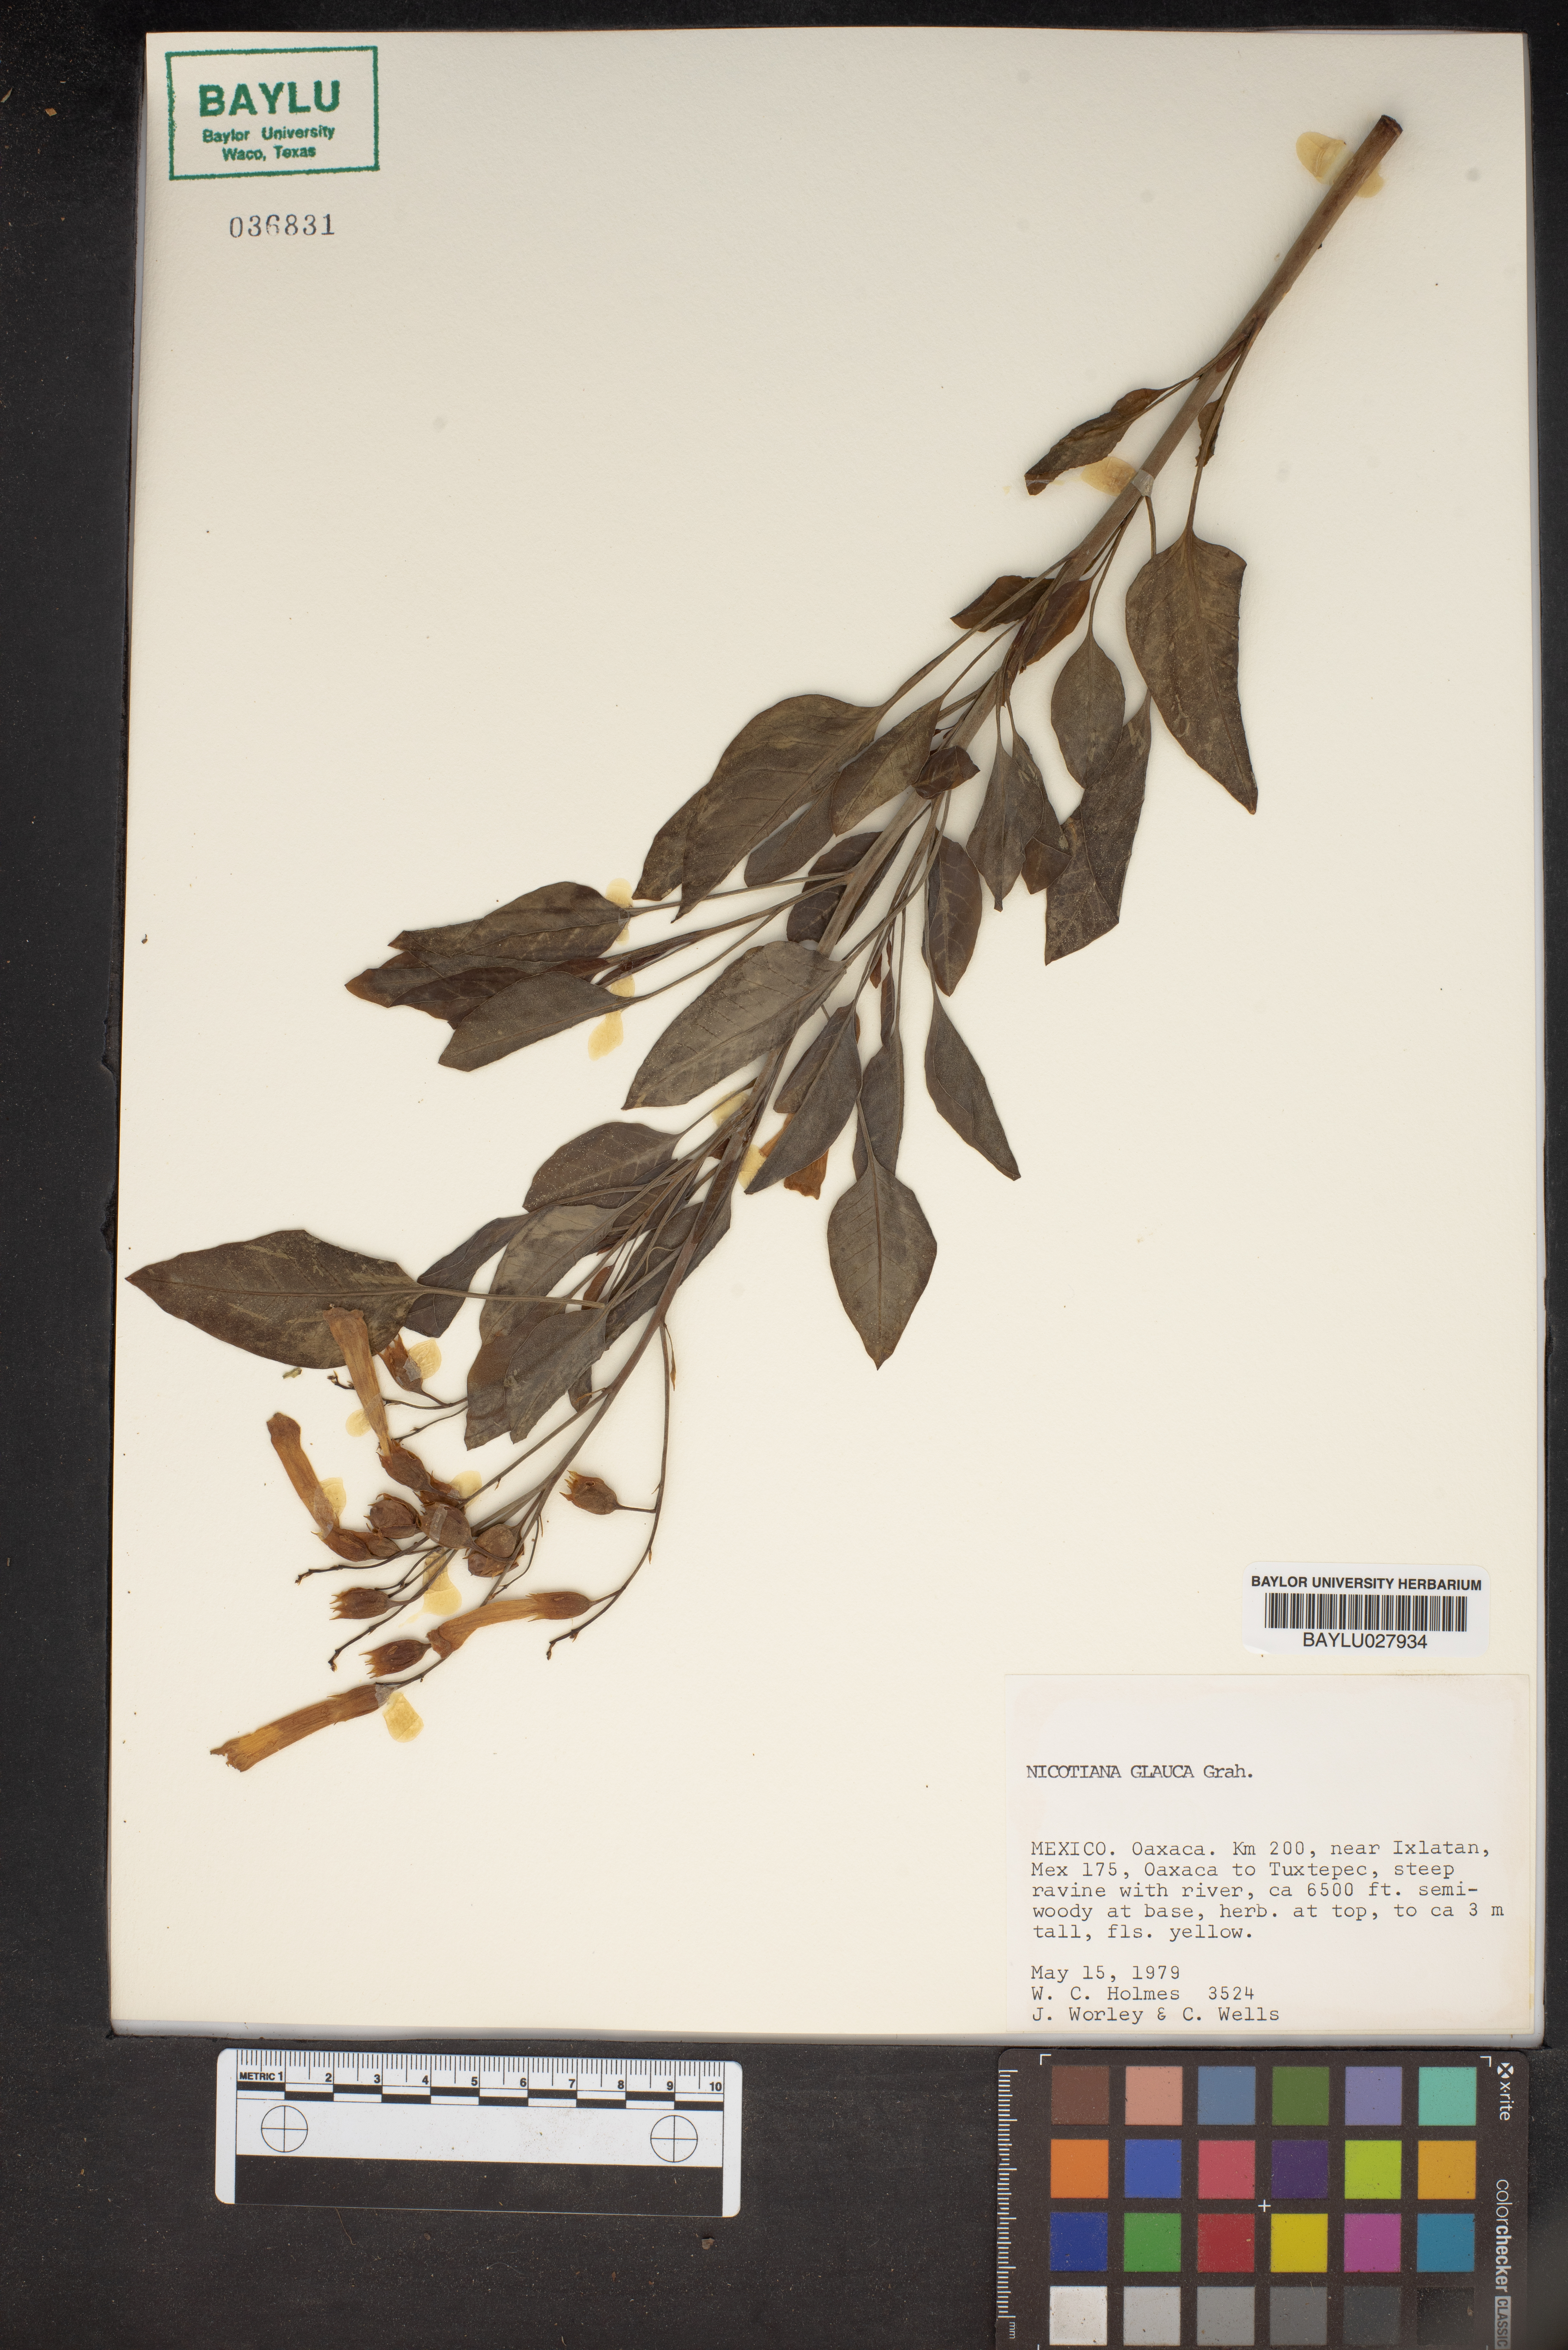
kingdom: Plantae
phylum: Tracheophyta
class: Magnoliopsida
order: Solanales
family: Solanaceae
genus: Nicotiana
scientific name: Nicotiana glauca
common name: Tree tobacco
